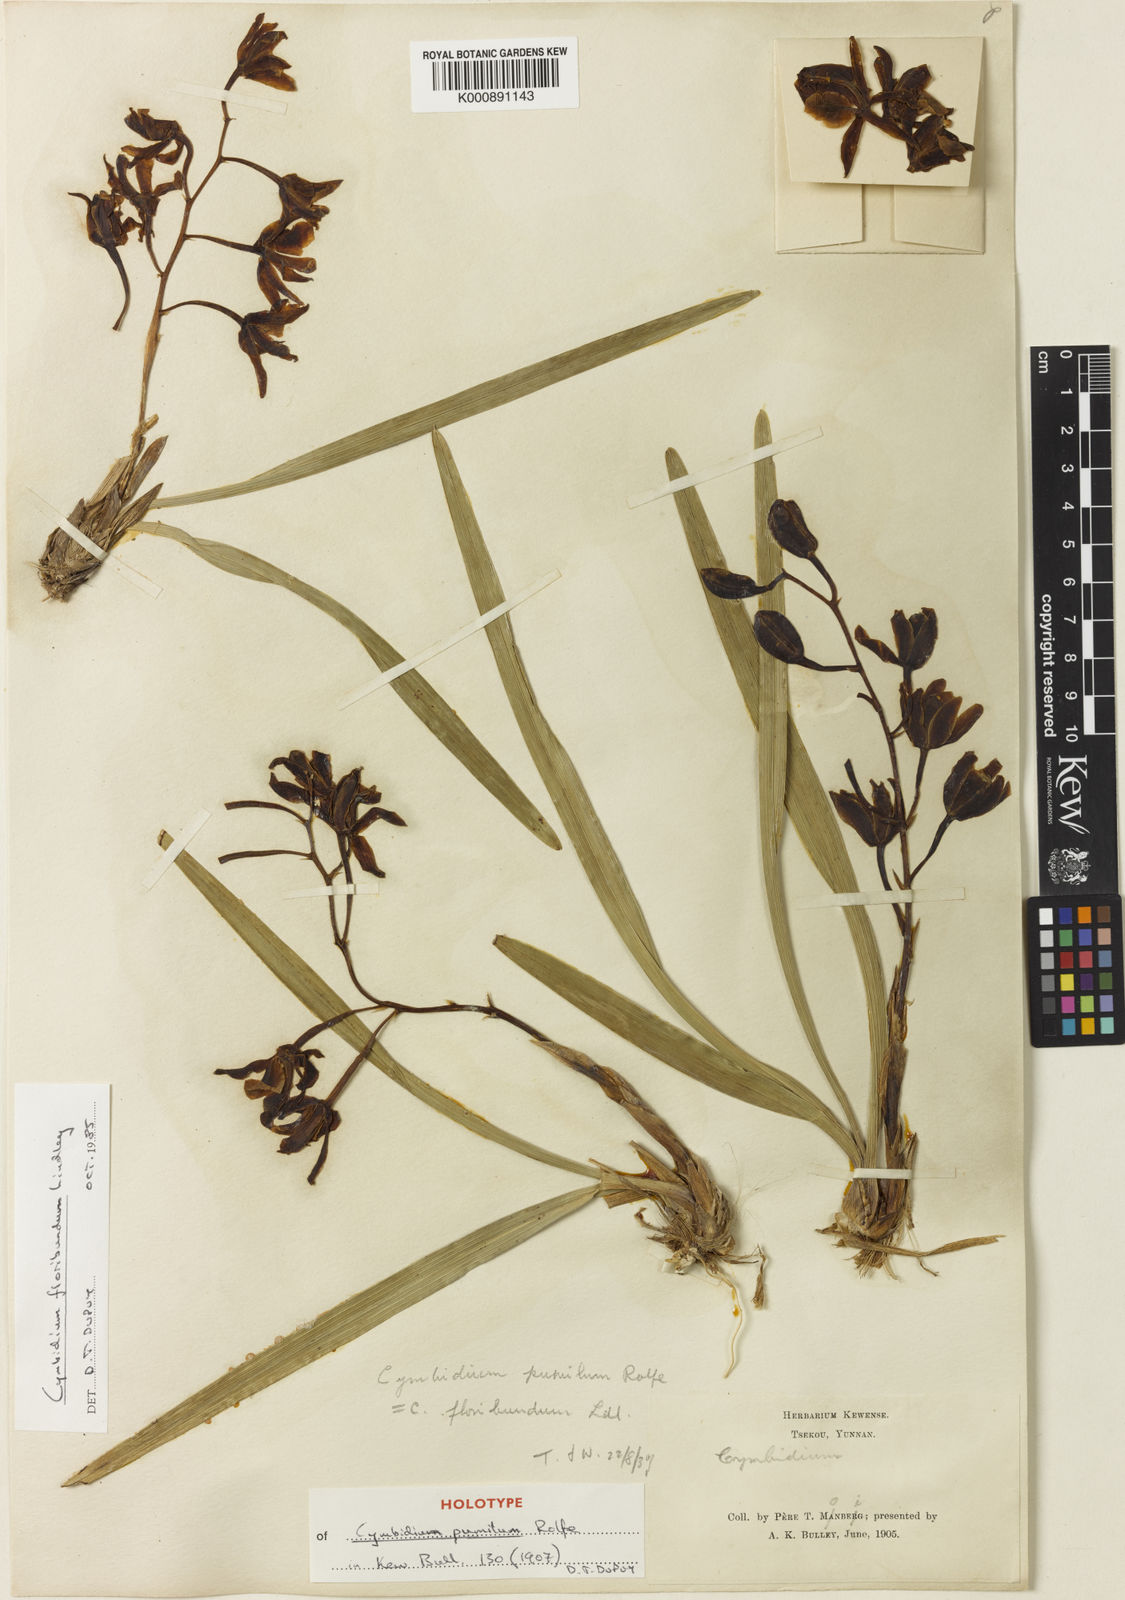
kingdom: Plantae
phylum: Tracheophyta
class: Liliopsida
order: Asparagales
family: Orchidaceae
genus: Cymbidium
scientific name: Cymbidium floribundum
